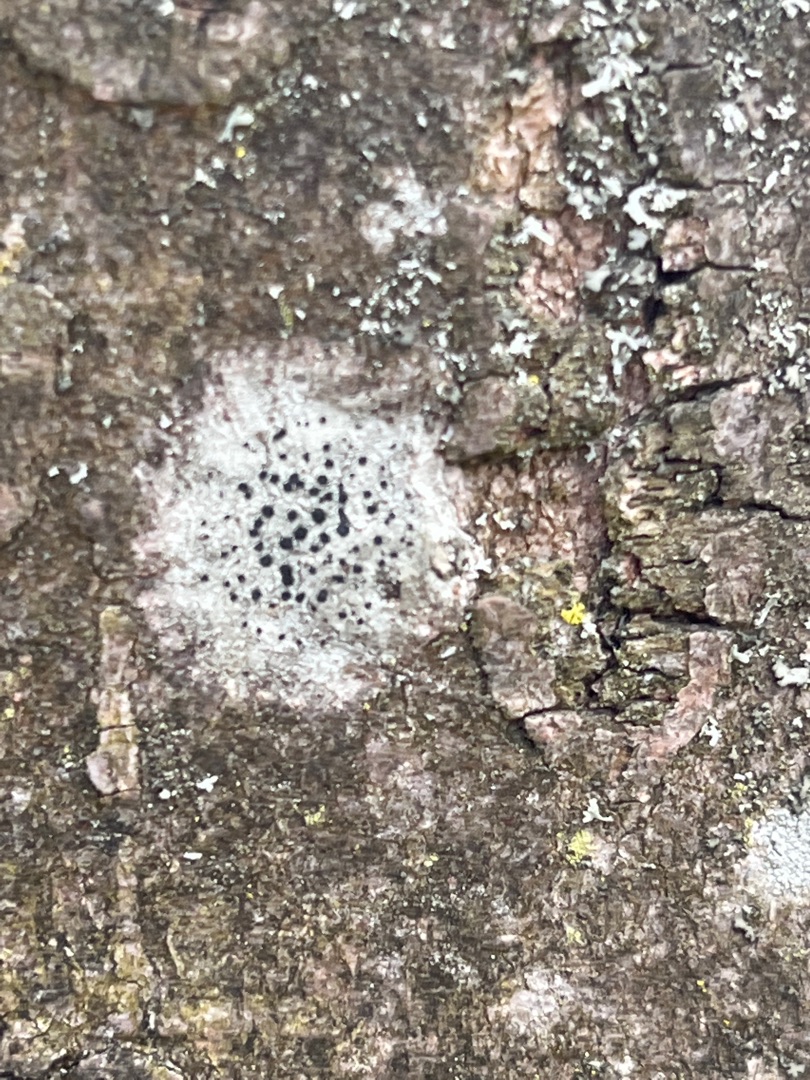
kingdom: Fungi
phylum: Ascomycota
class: Lecanoromycetes
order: Lecanorales
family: Lecanoraceae
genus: Lecidella
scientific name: Lecidella elaeochroma
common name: Grågrøn skivelav
